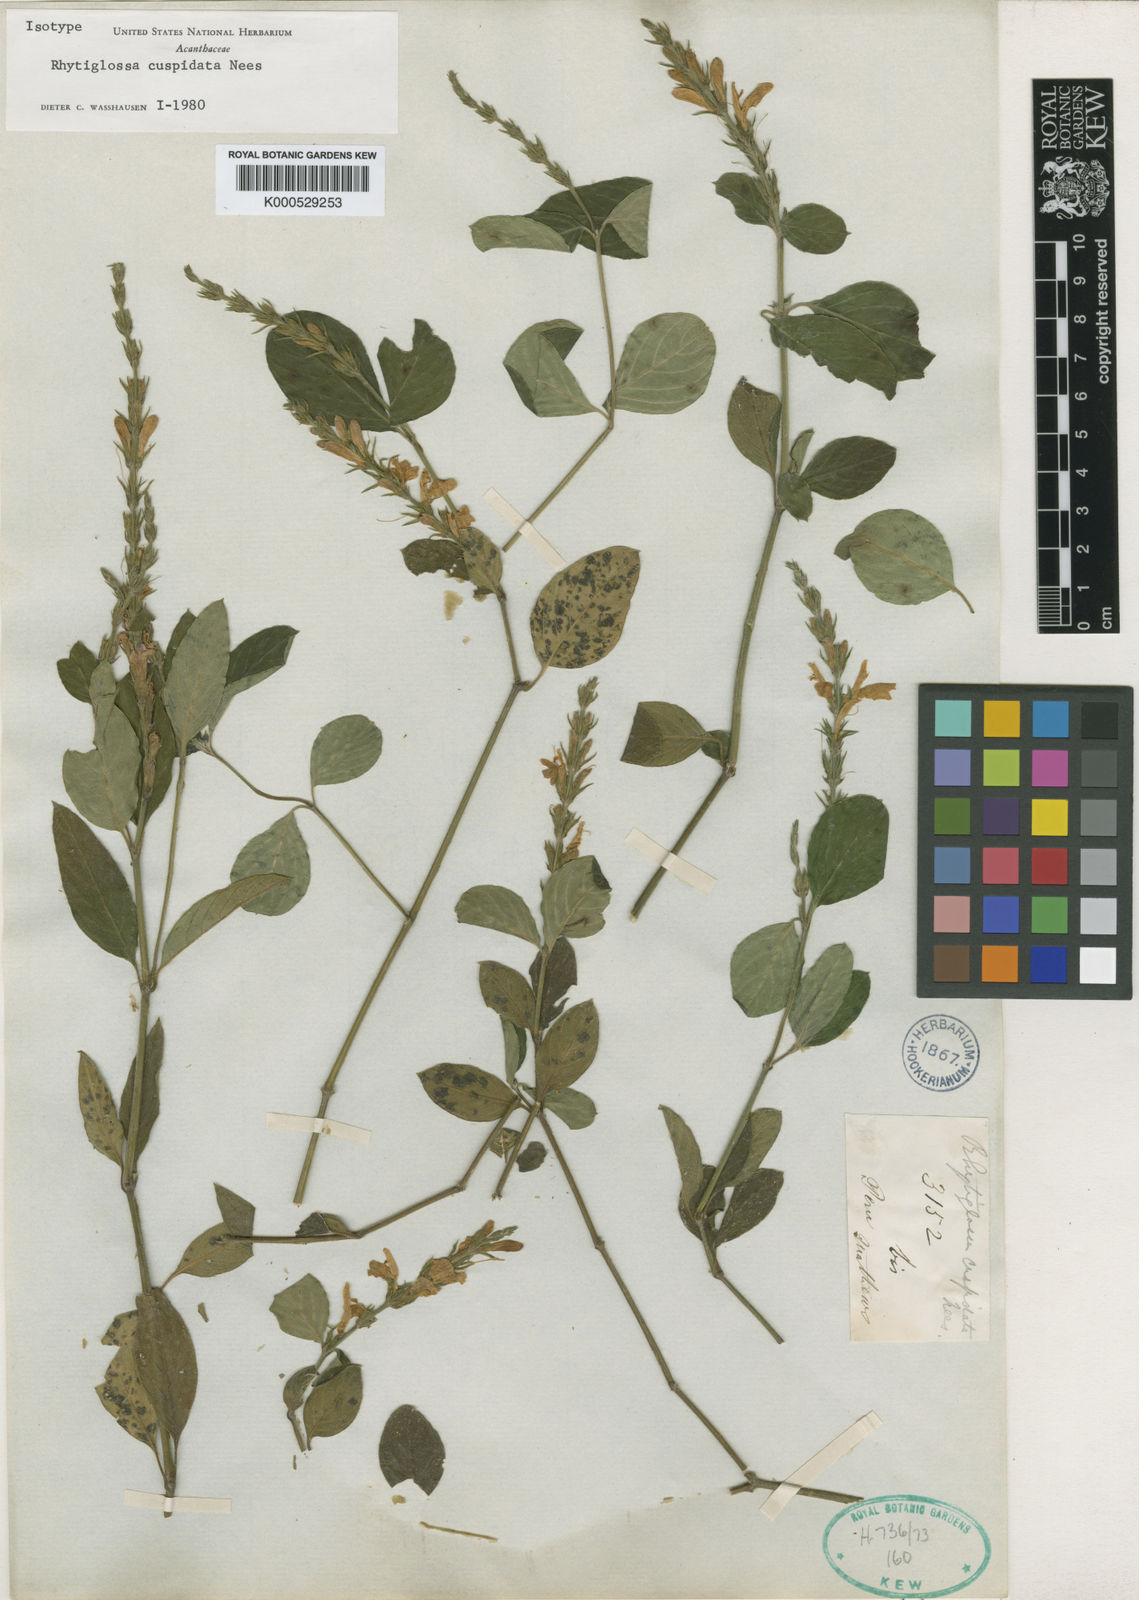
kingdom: Plantae
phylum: Tracheophyta
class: Magnoliopsida
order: Lamiales
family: Acanthaceae
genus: Justicia
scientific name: Justicia cuspidulata
